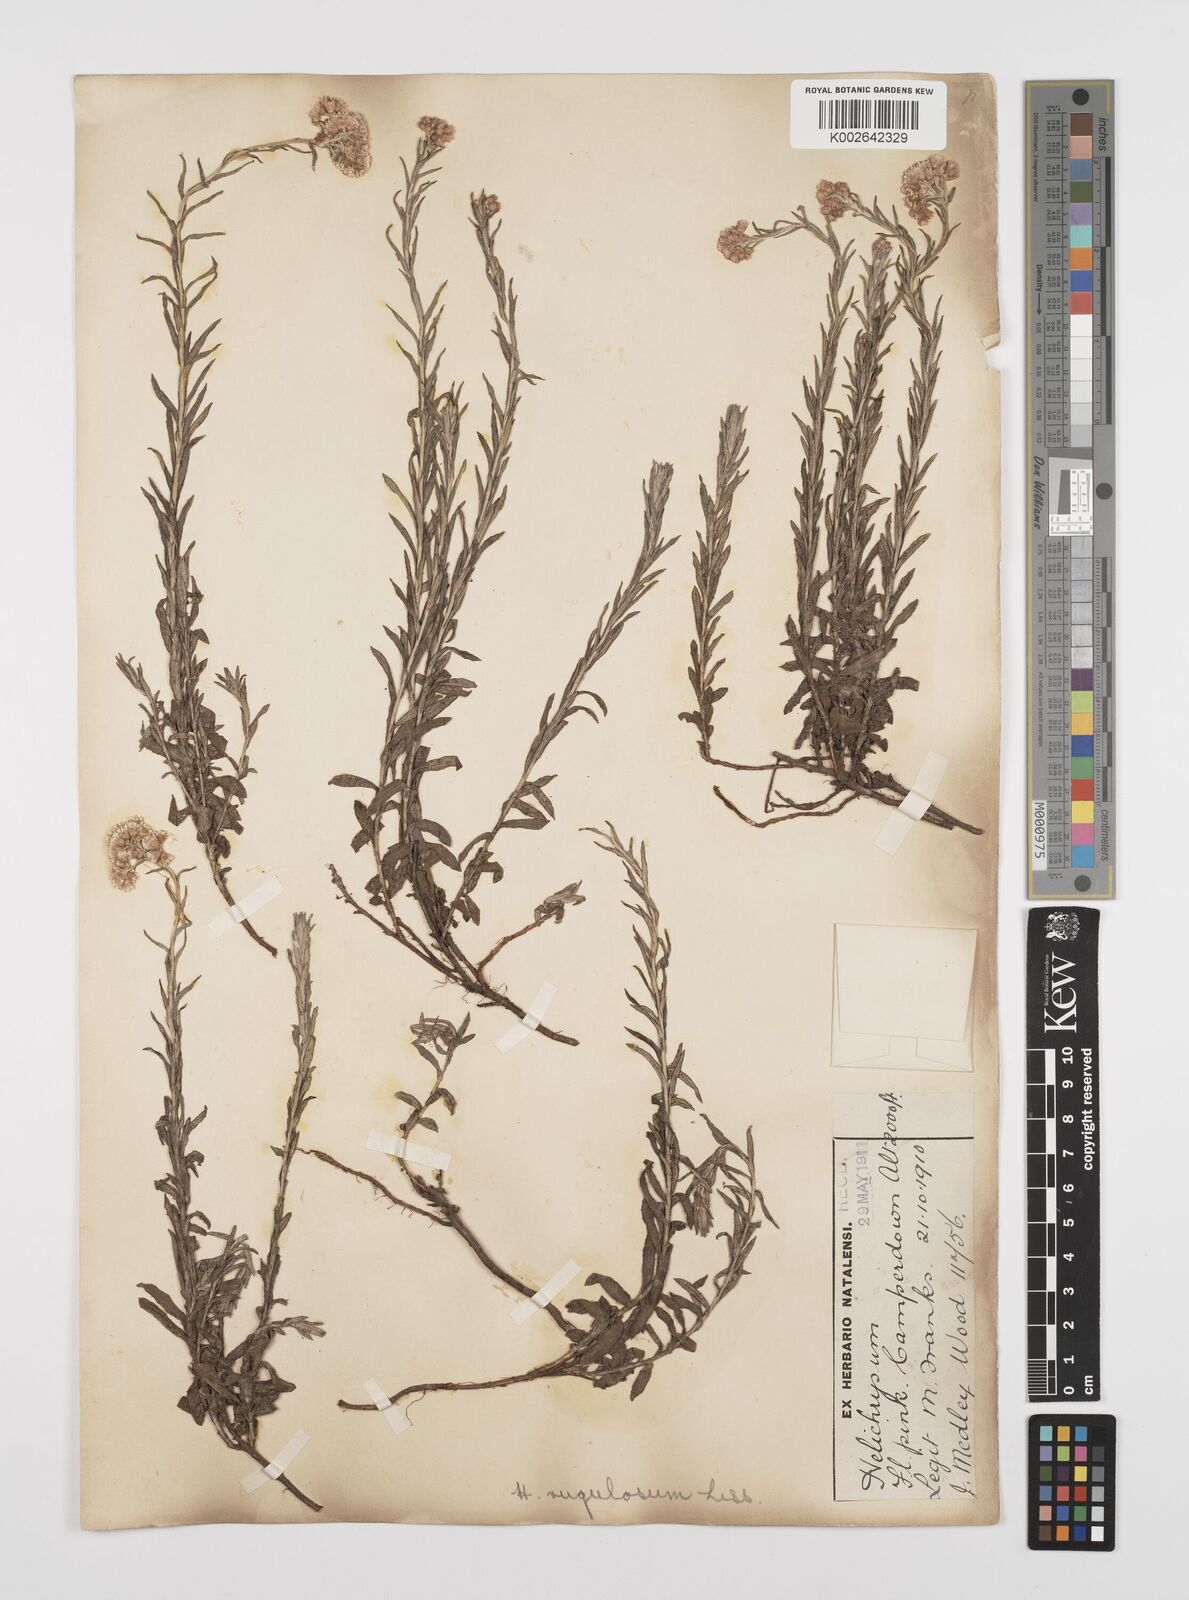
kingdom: Plantae
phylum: Tracheophyta
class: Magnoliopsida
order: Asterales
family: Asteraceae
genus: Helichrysum
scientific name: Helichrysum rugulosum
